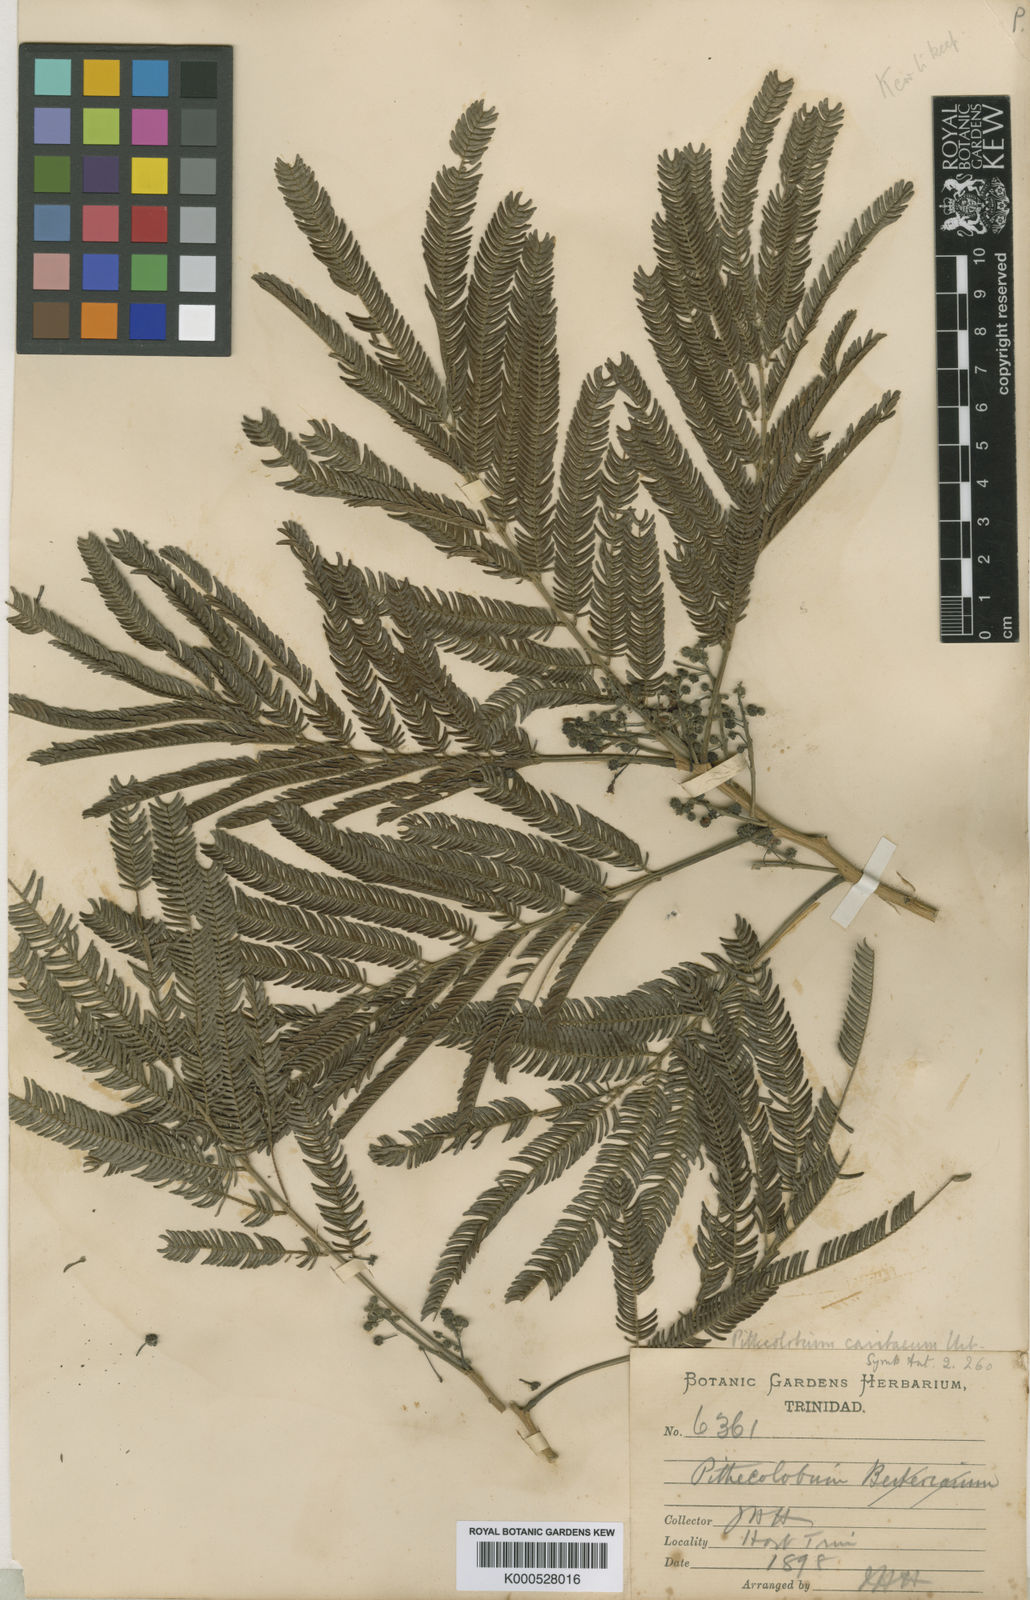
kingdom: Plantae
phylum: Tracheophyta
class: Magnoliopsida
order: Fabales
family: Fabaceae
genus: Albizia
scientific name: Albizia niopoides
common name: Silk tree
